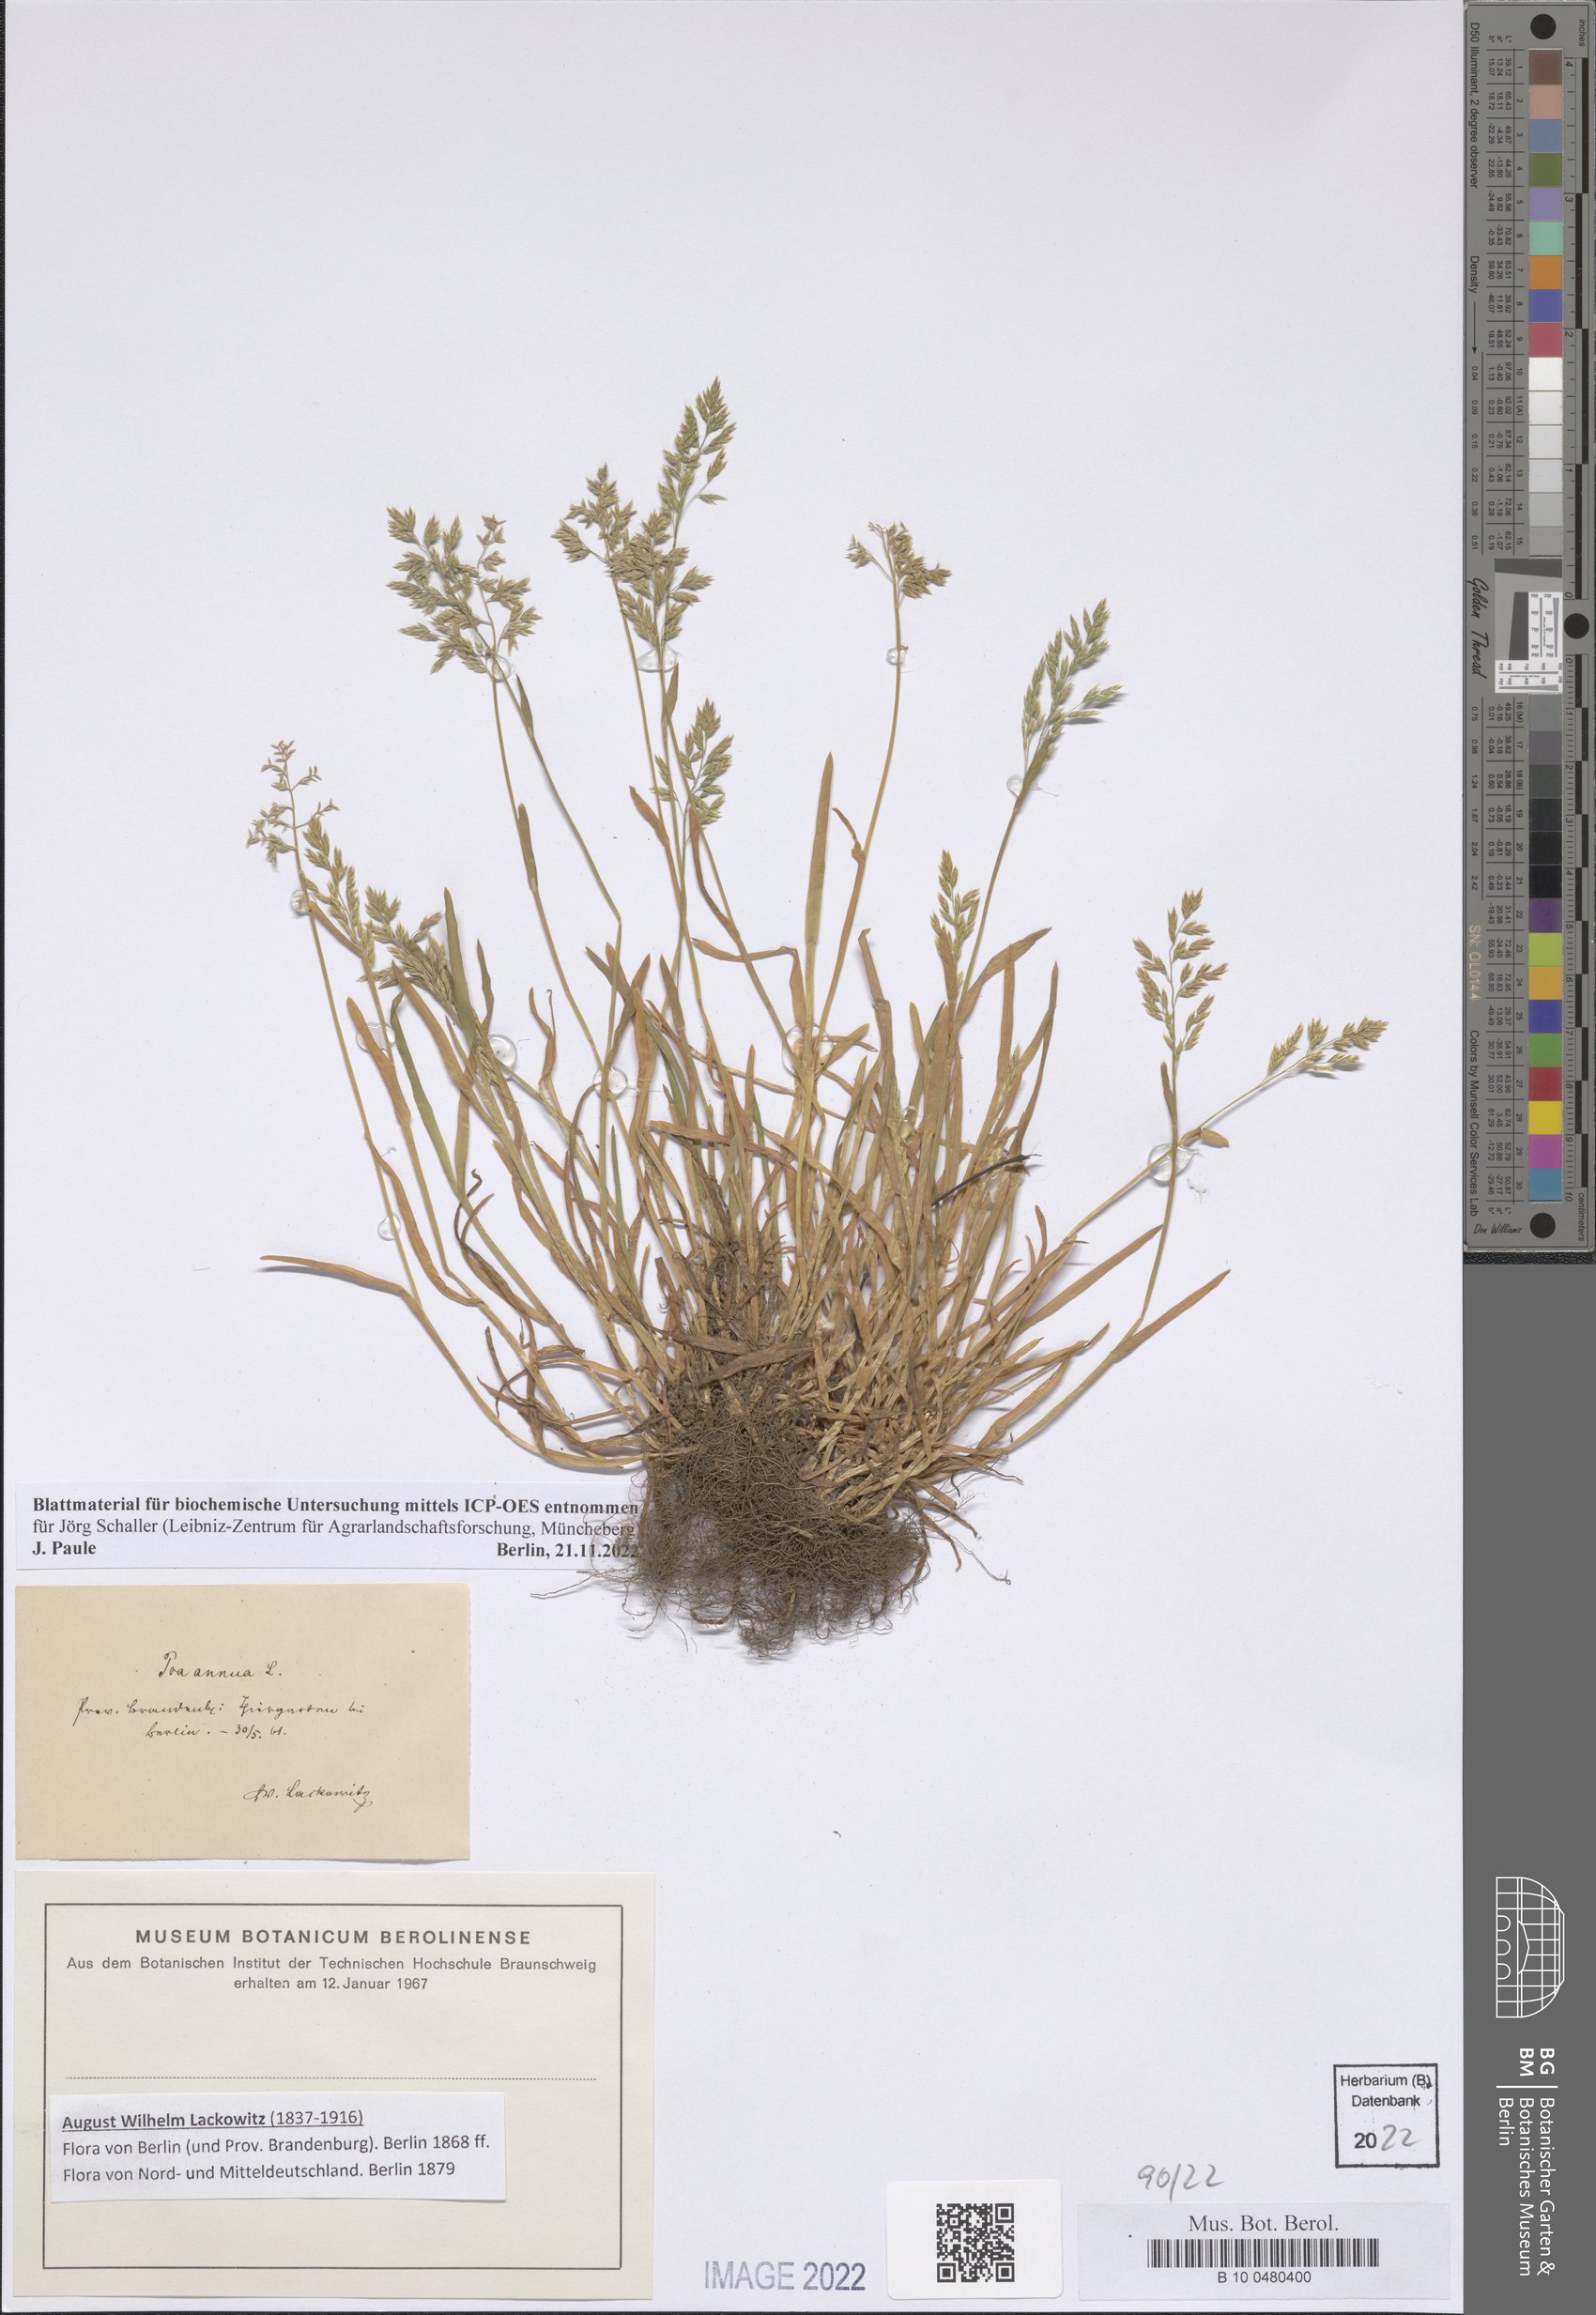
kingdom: Plantae
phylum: Tracheophyta
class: Liliopsida
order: Poales
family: Poaceae
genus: Poa
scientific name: Poa annua
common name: Annual bluegrass
